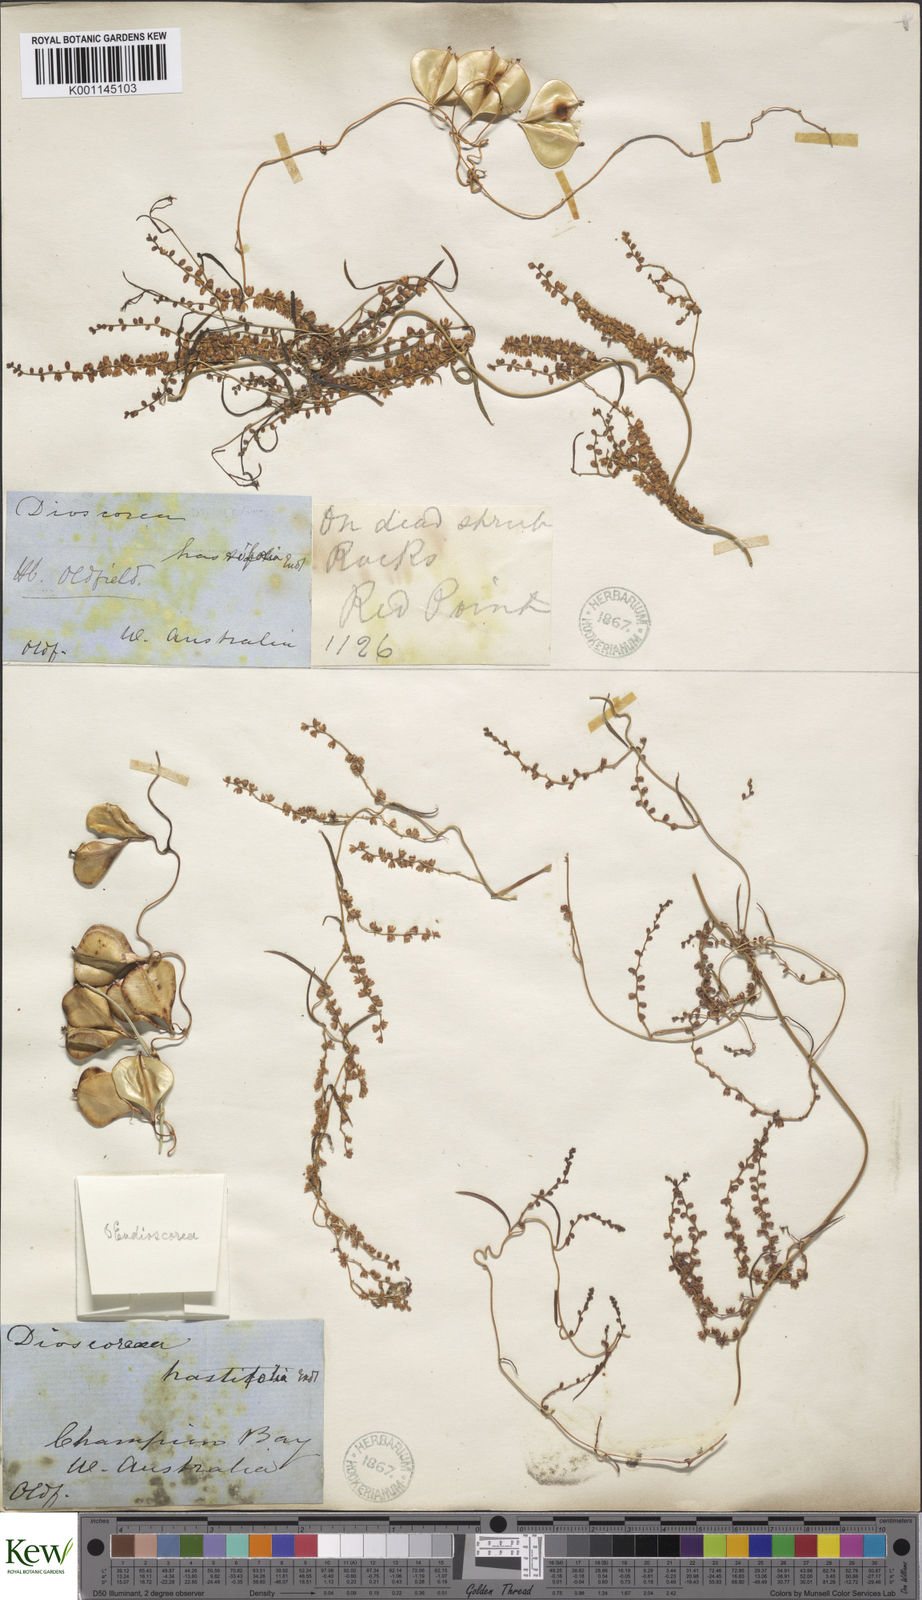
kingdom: Plantae
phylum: Tracheophyta
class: Liliopsida
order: Dioscoreales
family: Dioscoreaceae
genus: Dioscorea
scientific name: Dioscorea hastifolia
